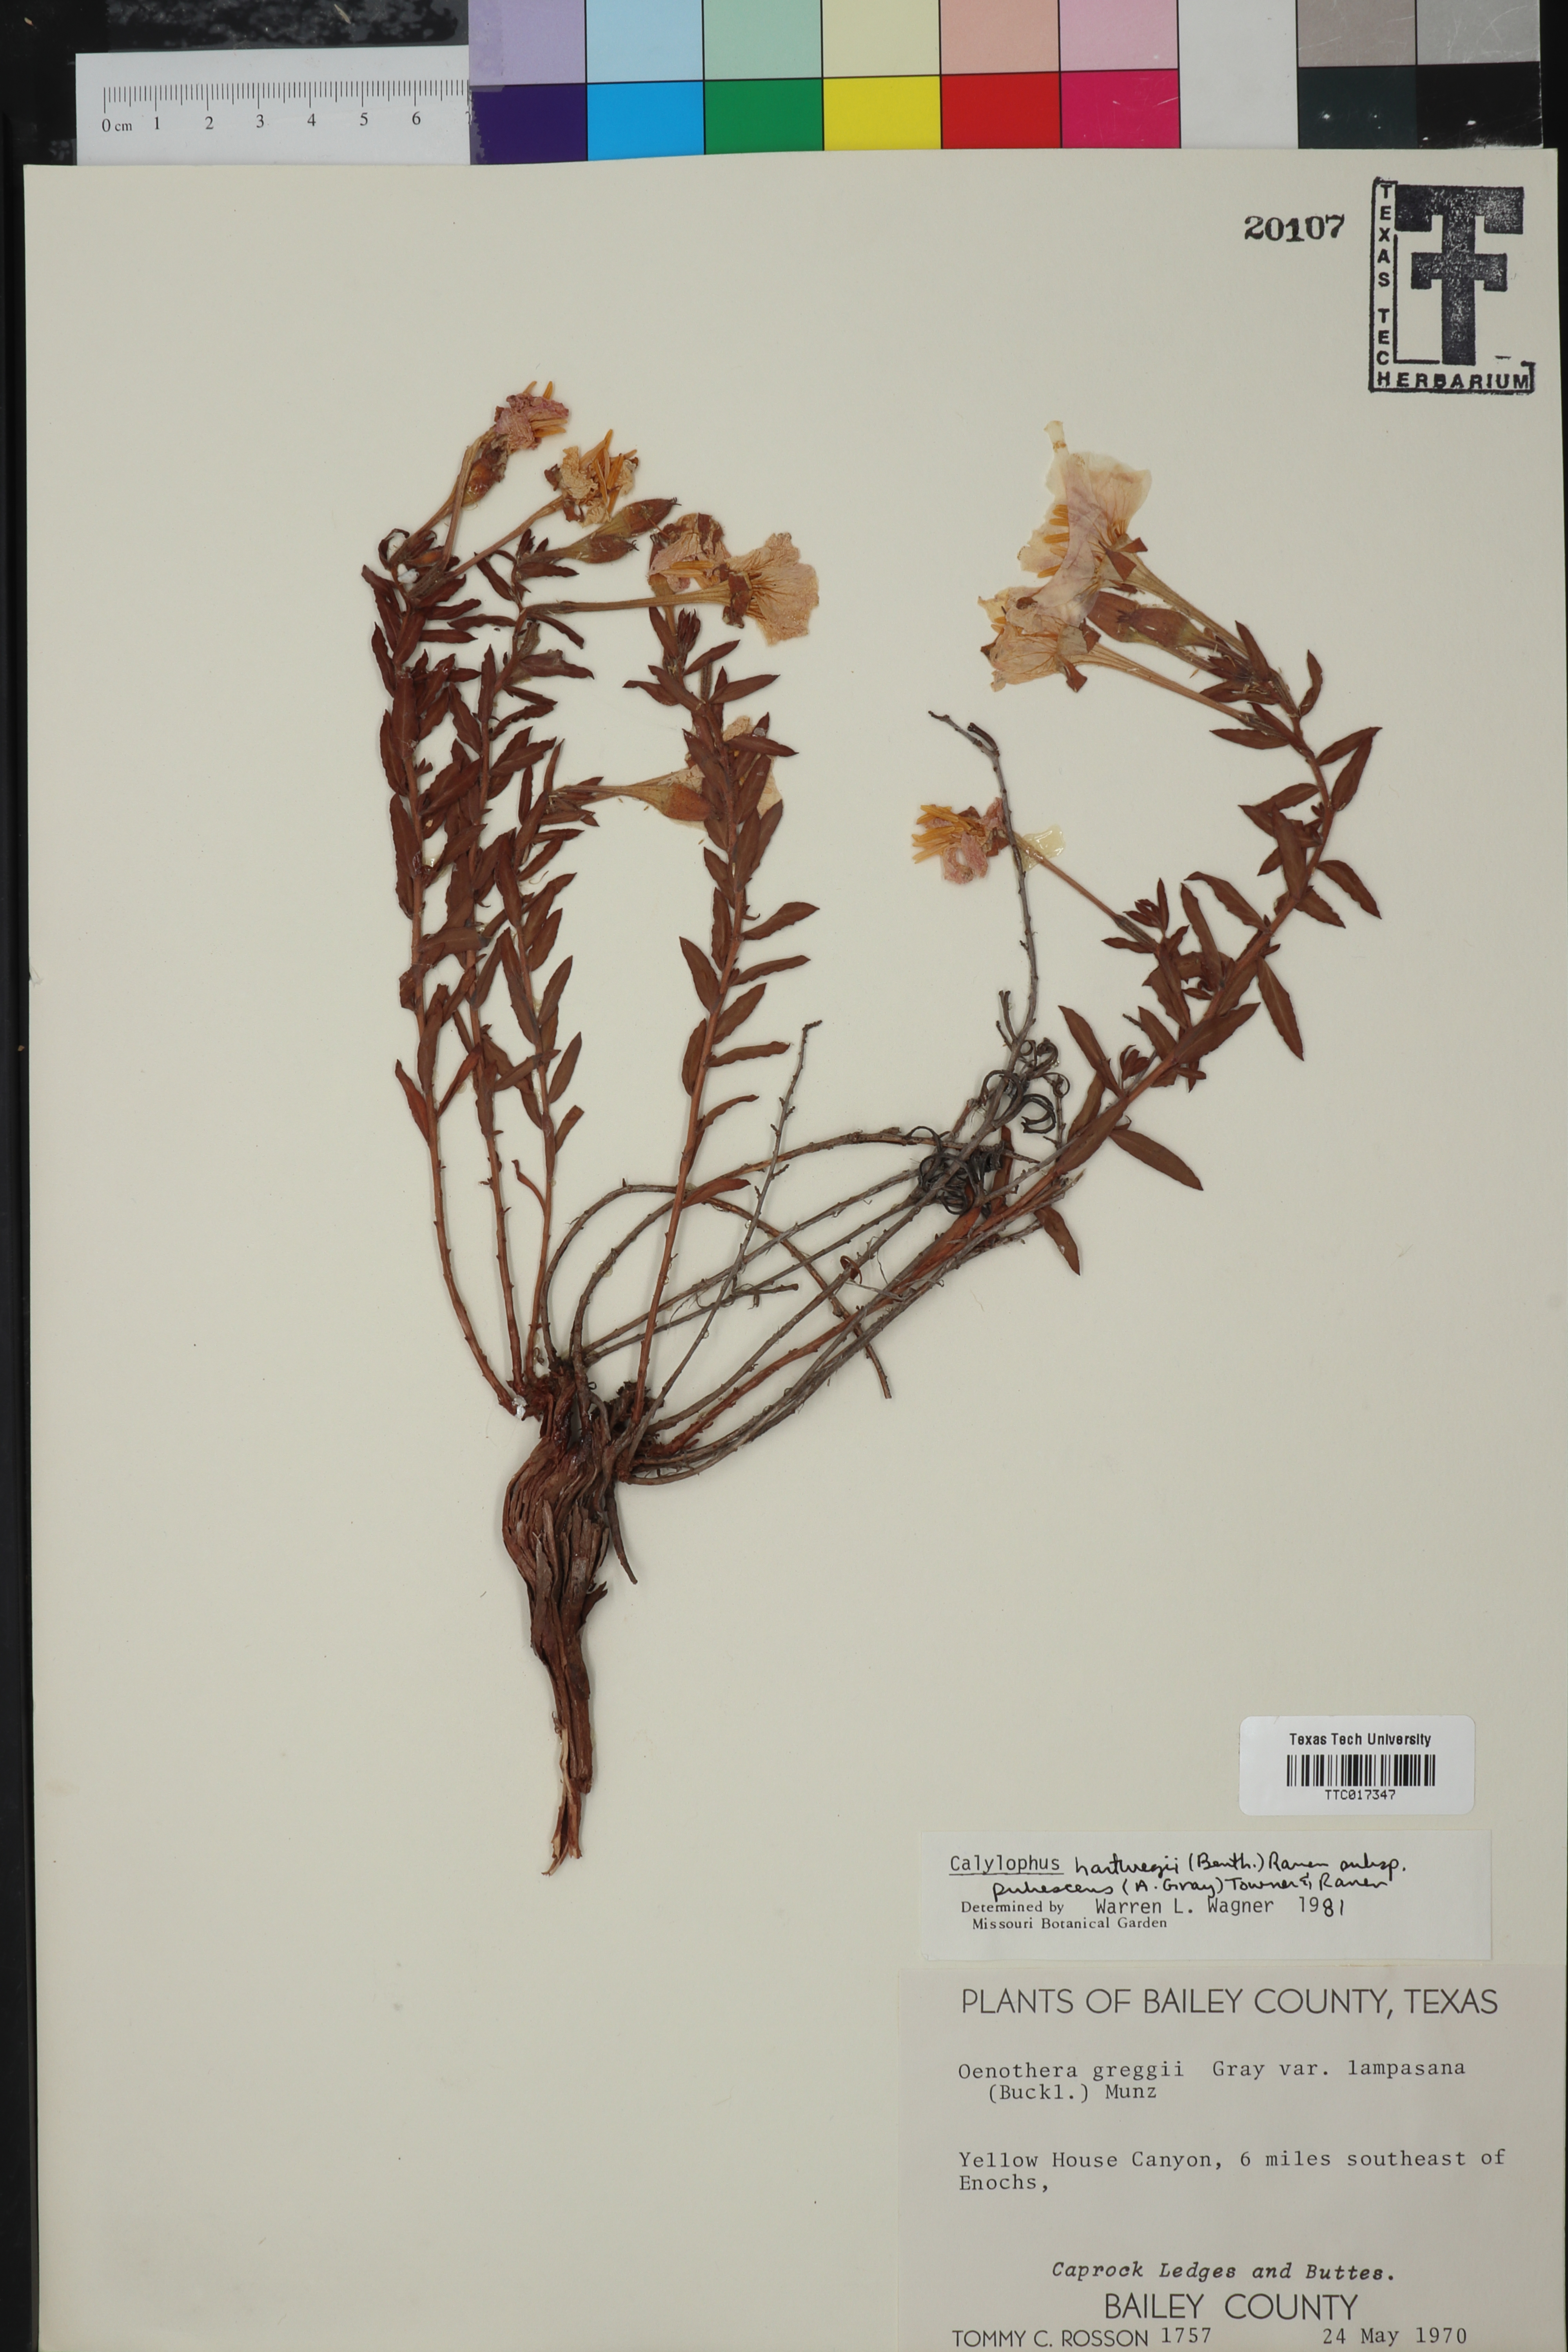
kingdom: Plantae
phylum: Tracheophyta
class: Magnoliopsida
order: Myrtales
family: Onagraceae
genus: Oenothera
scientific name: Oenothera hartwegii
